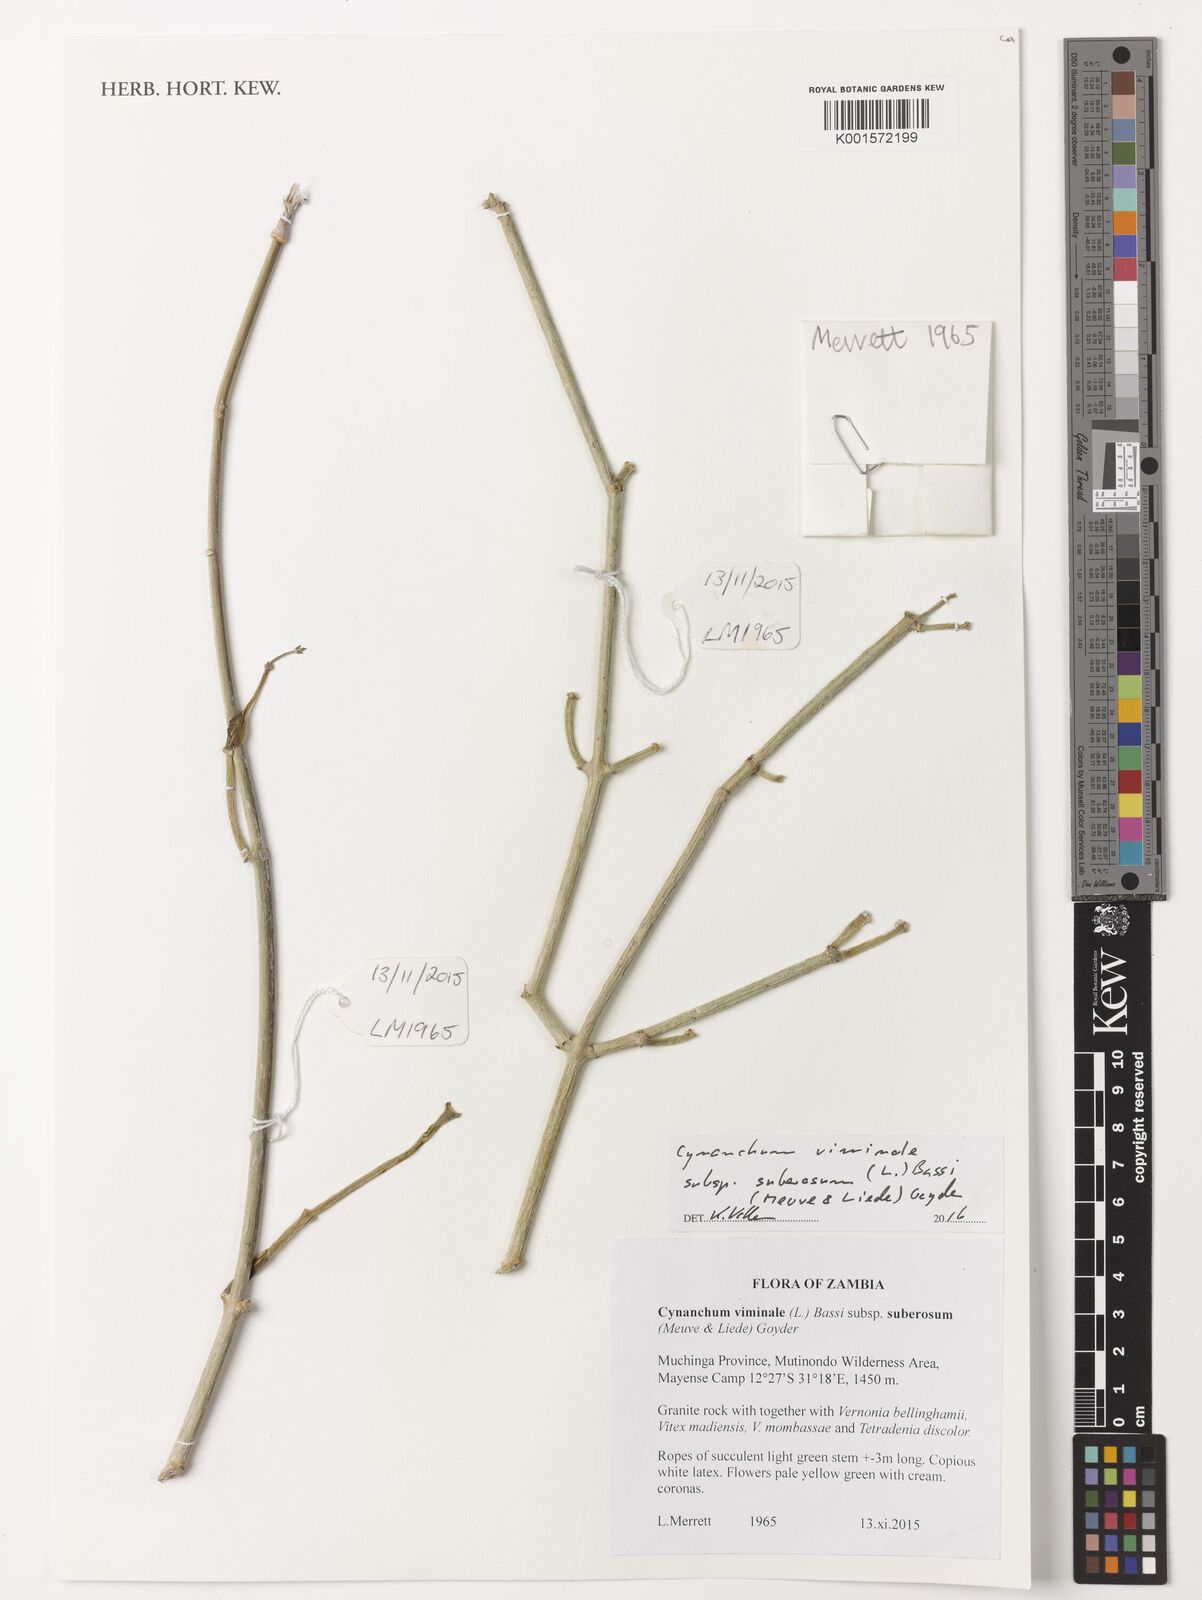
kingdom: Plantae
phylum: Tracheophyta
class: Magnoliopsida
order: Gentianales
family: Apocynaceae
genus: Cynanchum
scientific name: Cynanchum viminale
